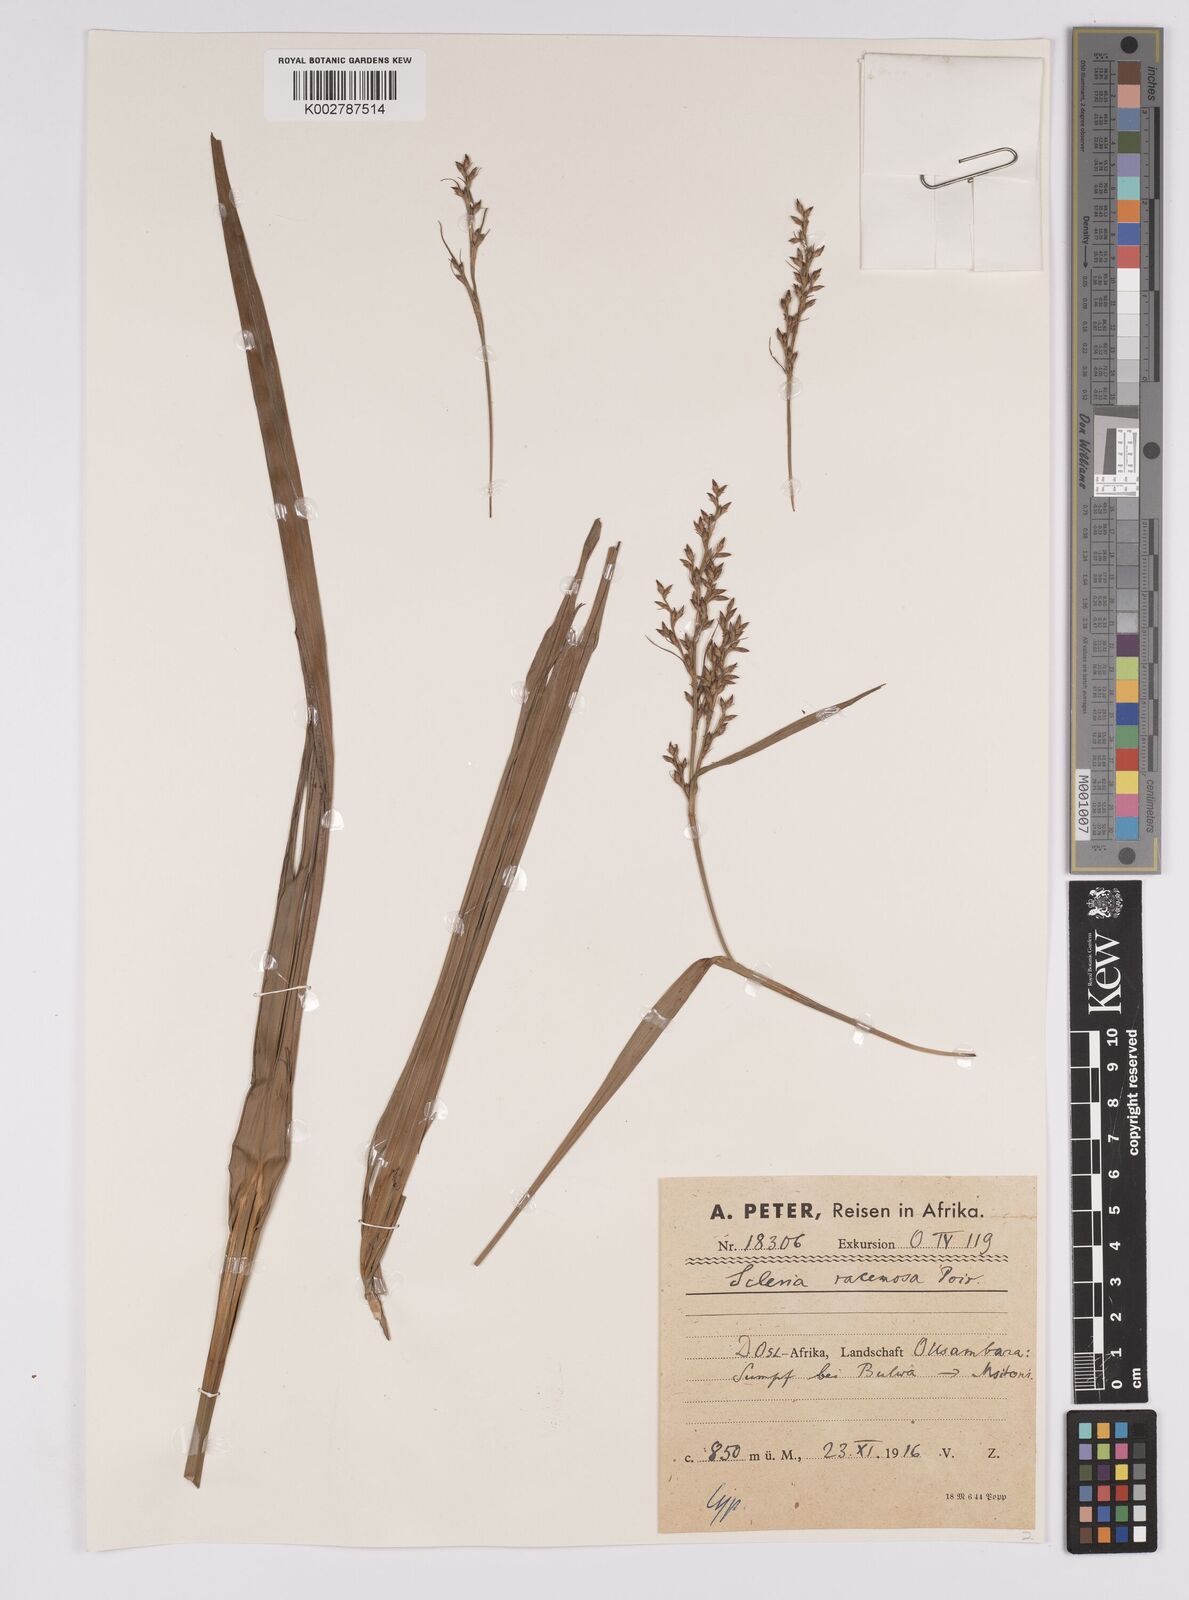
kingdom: Plantae
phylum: Tracheophyta
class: Liliopsida
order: Poales
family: Cyperaceae
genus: Scleria
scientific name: Scleria racemosa
